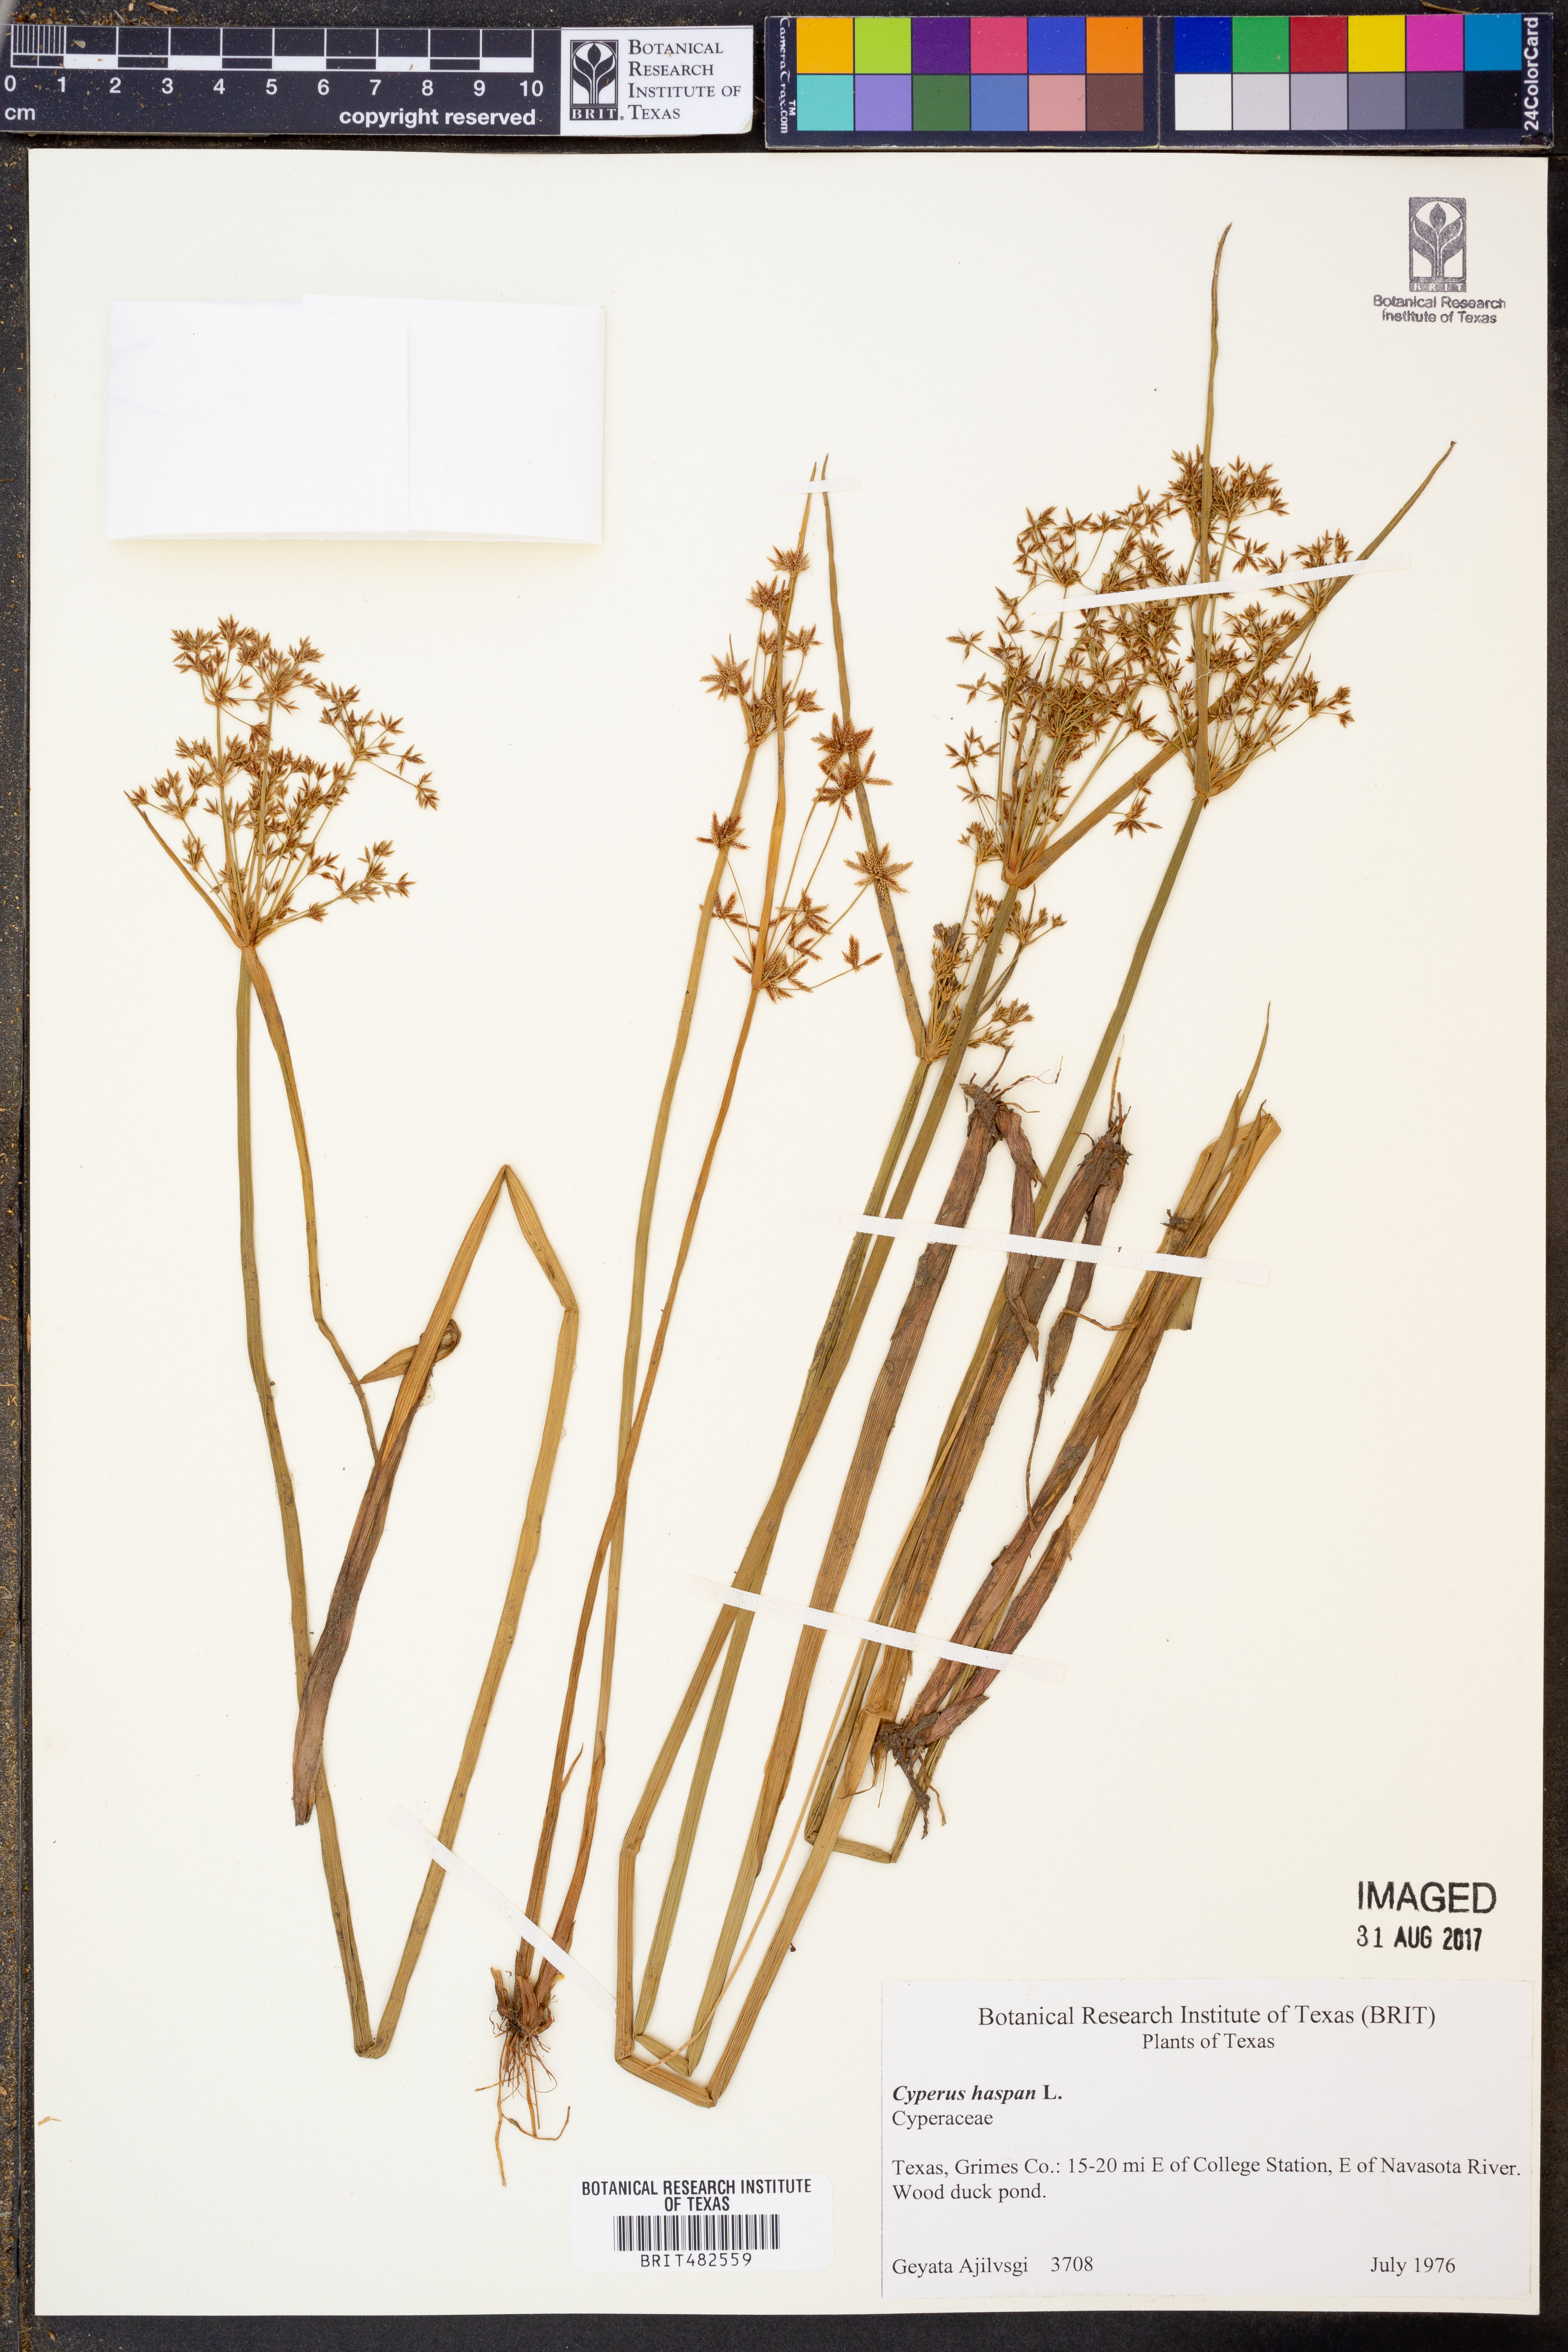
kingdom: Plantae
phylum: Tracheophyta
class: Liliopsida
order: Poales
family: Cyperaceae
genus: Cyperus
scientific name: Cyperus haspan
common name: Haspan flatsedge
